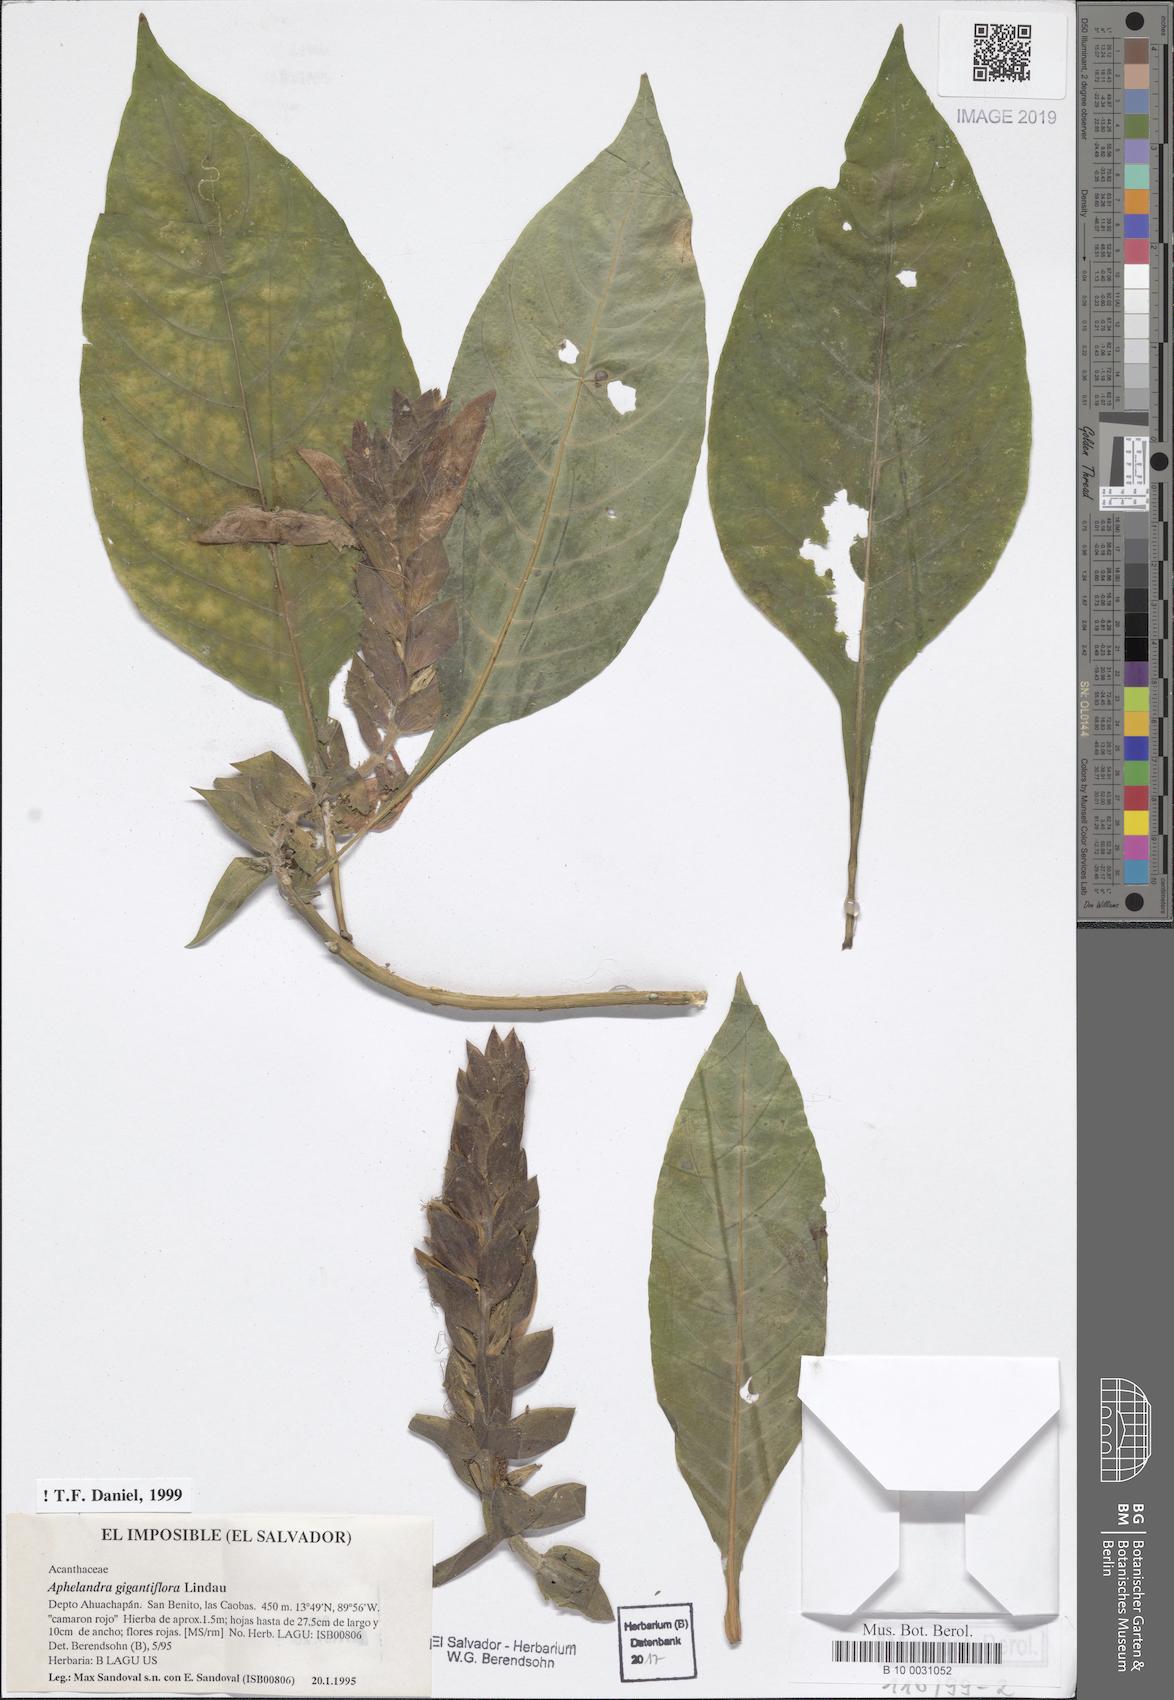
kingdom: Plantae
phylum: Tracheophyta
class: Magnoliopsida
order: Lamiales
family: Acanthaceae
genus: Aphelandra
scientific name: Aphelandra gigantiflora
